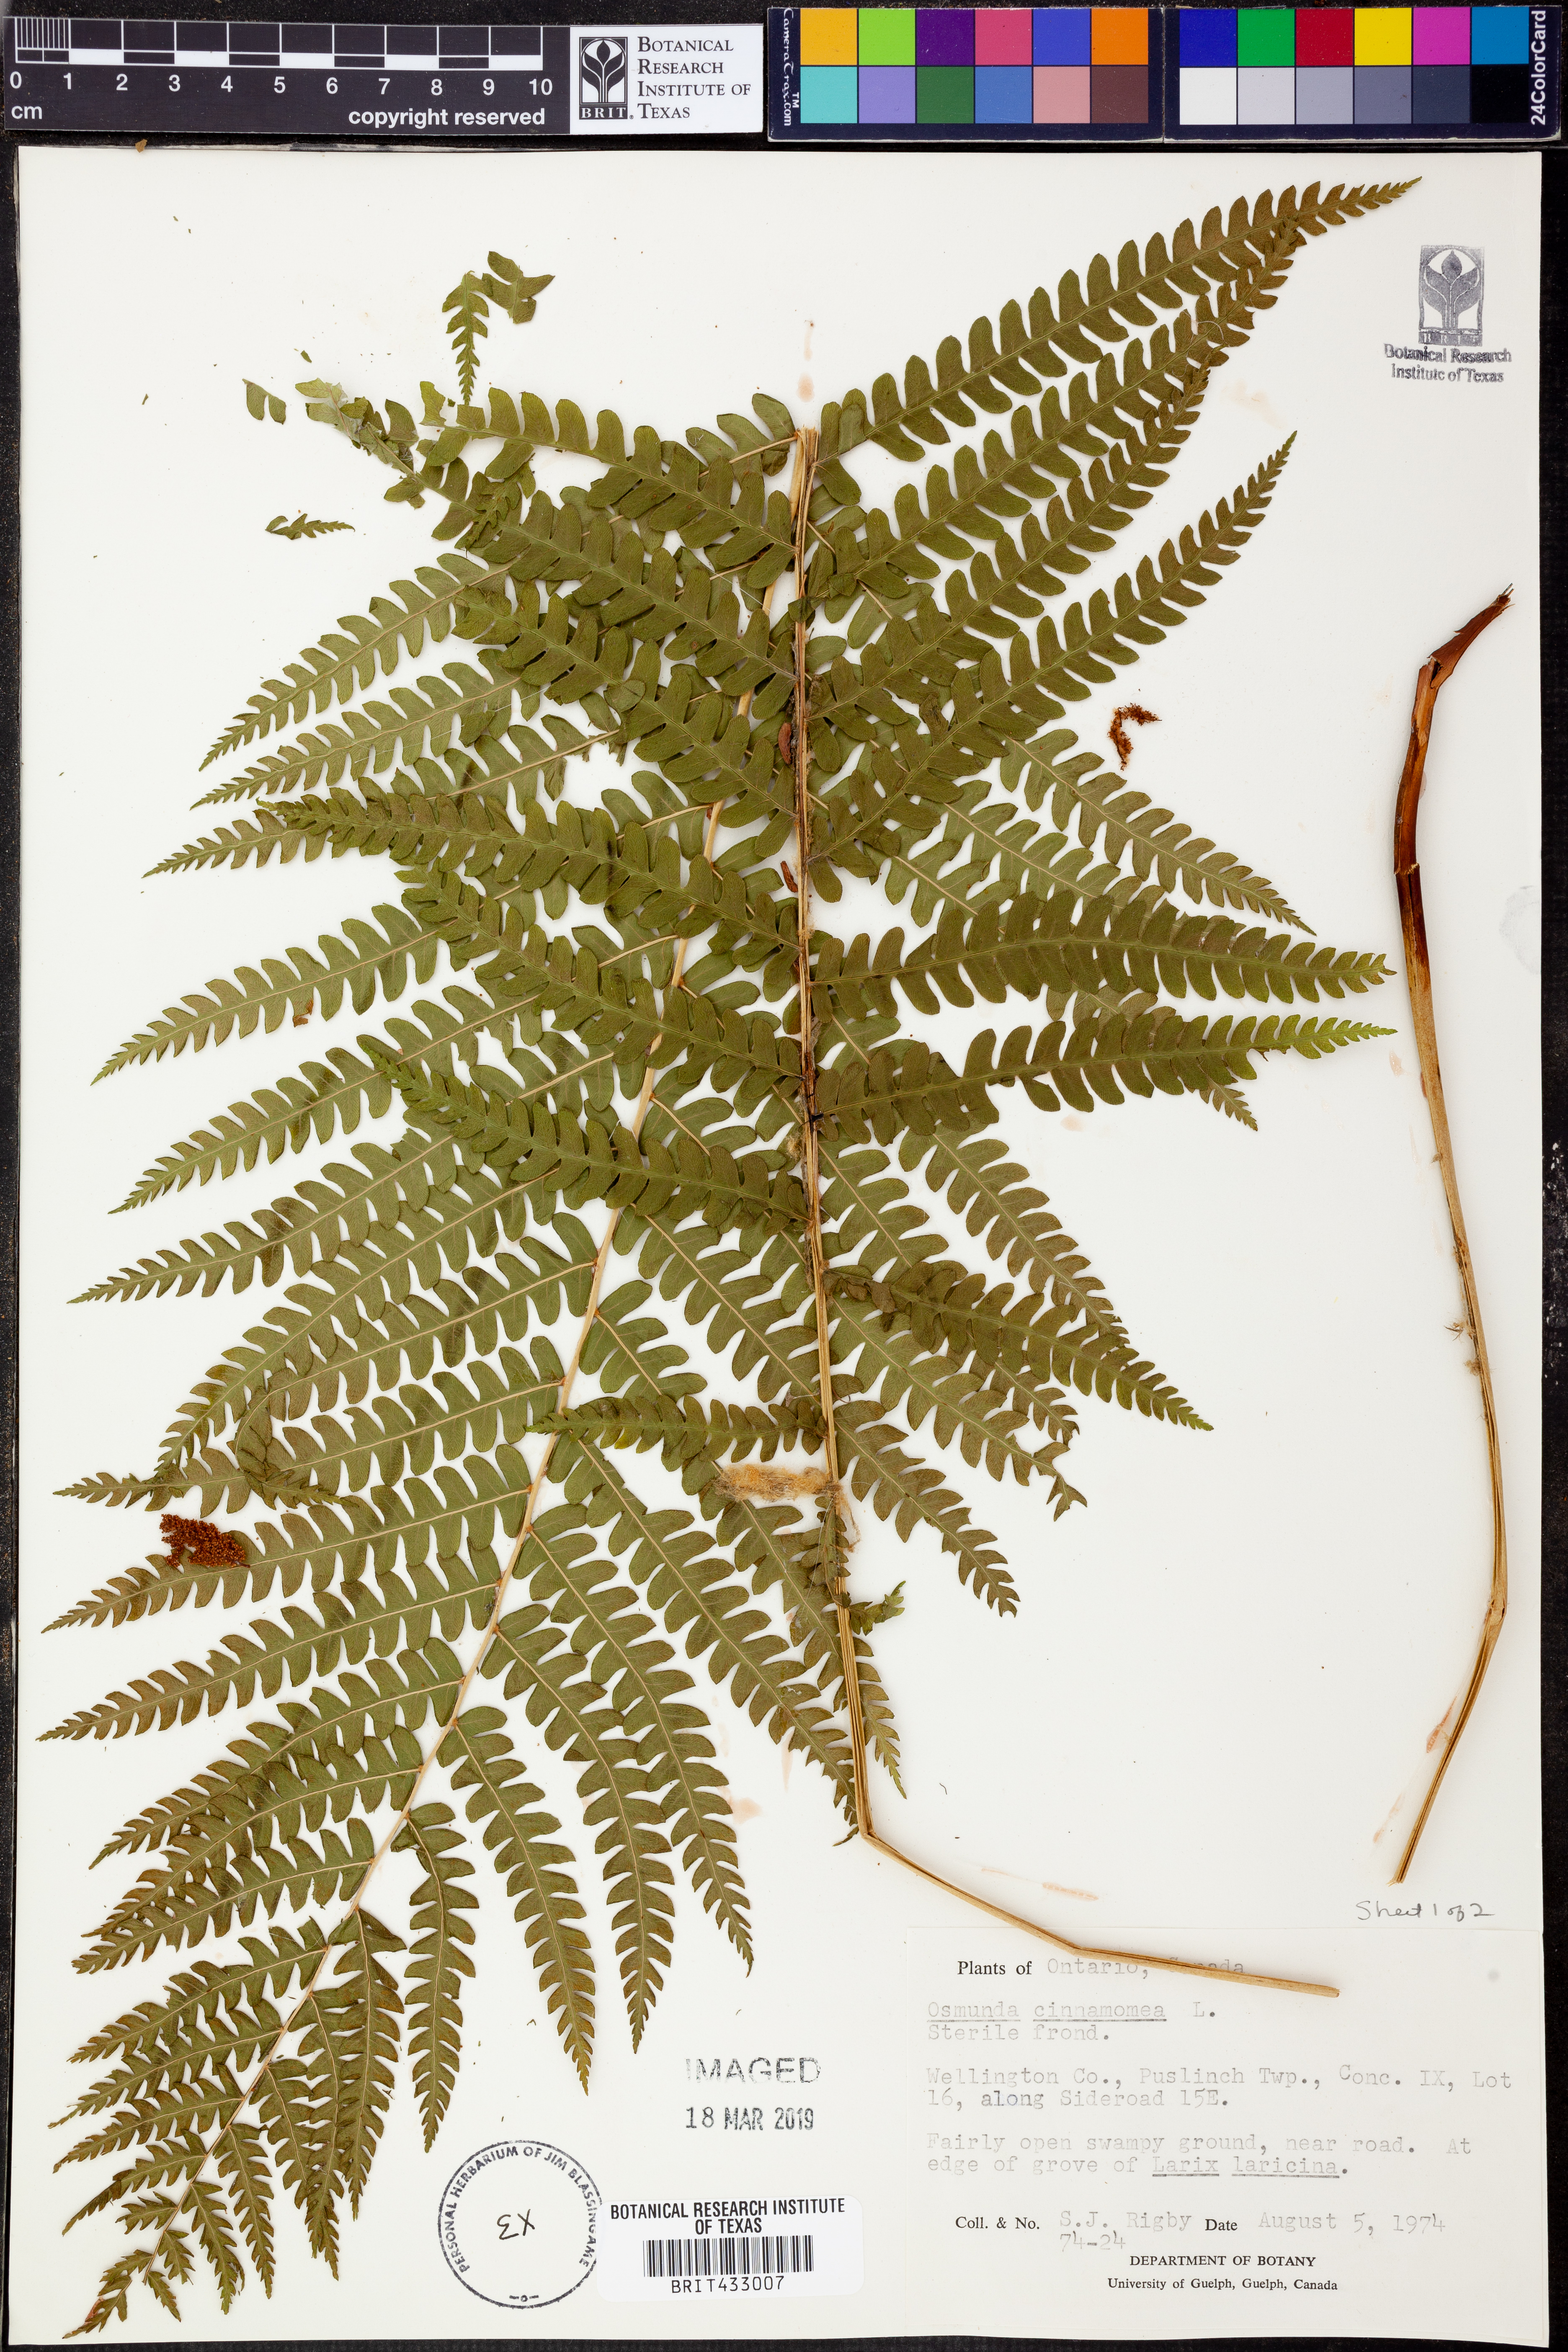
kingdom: Plantae
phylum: Tracheophyta
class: Polypodiopsida
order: Osmundales
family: Osmundaceae
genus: Osmundastrum
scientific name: Osmundastrum cinnamomeum
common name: Cinnamon fern
